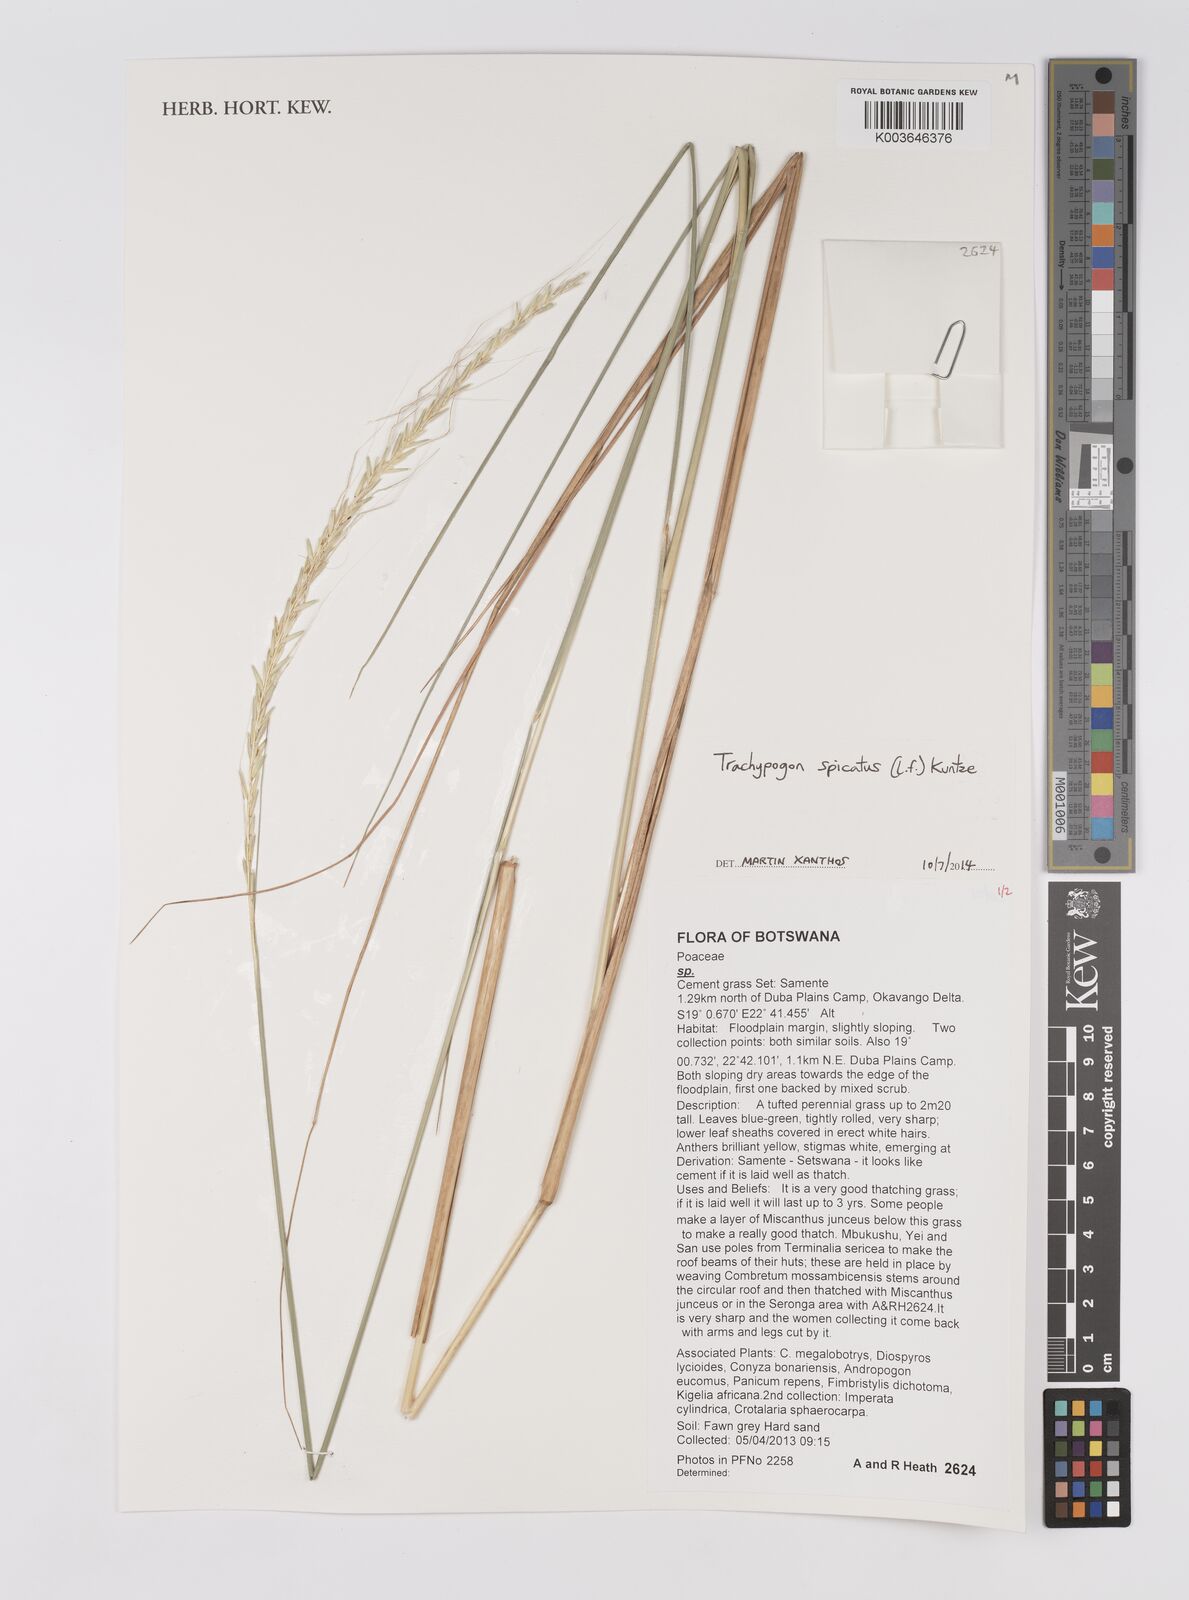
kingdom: Plantae
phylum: Tracheophyta
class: Liliopsida
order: Poales
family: Poaceae
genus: Trachypogon
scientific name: Trachypogon spicatus
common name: Crinkle-awn
